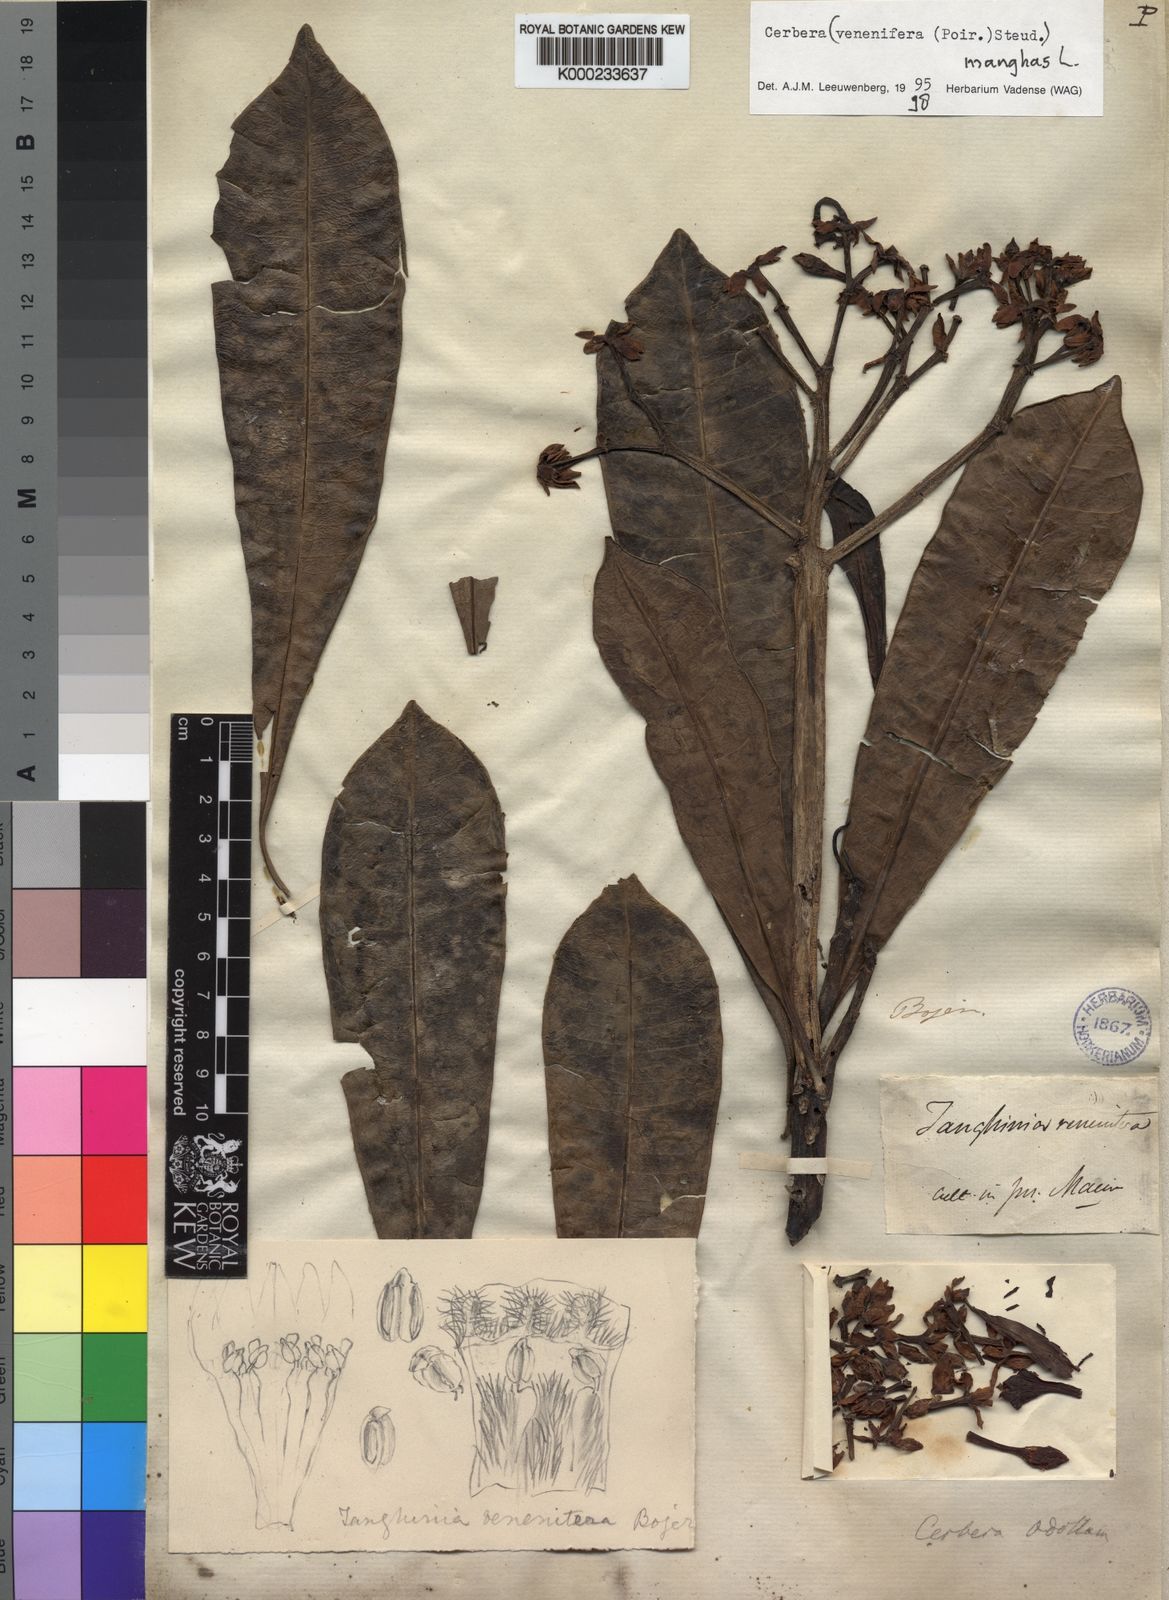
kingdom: Plantae
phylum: Tracheophyta
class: Magnoliopsida
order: Gentianales
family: Apocynaceae
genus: Cerbera
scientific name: Cerbera manghas
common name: Reva
